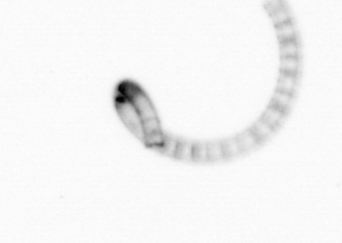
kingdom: Chromista
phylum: Ochrophyta
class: Bacillariophyceae
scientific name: Bacillariophyceae
